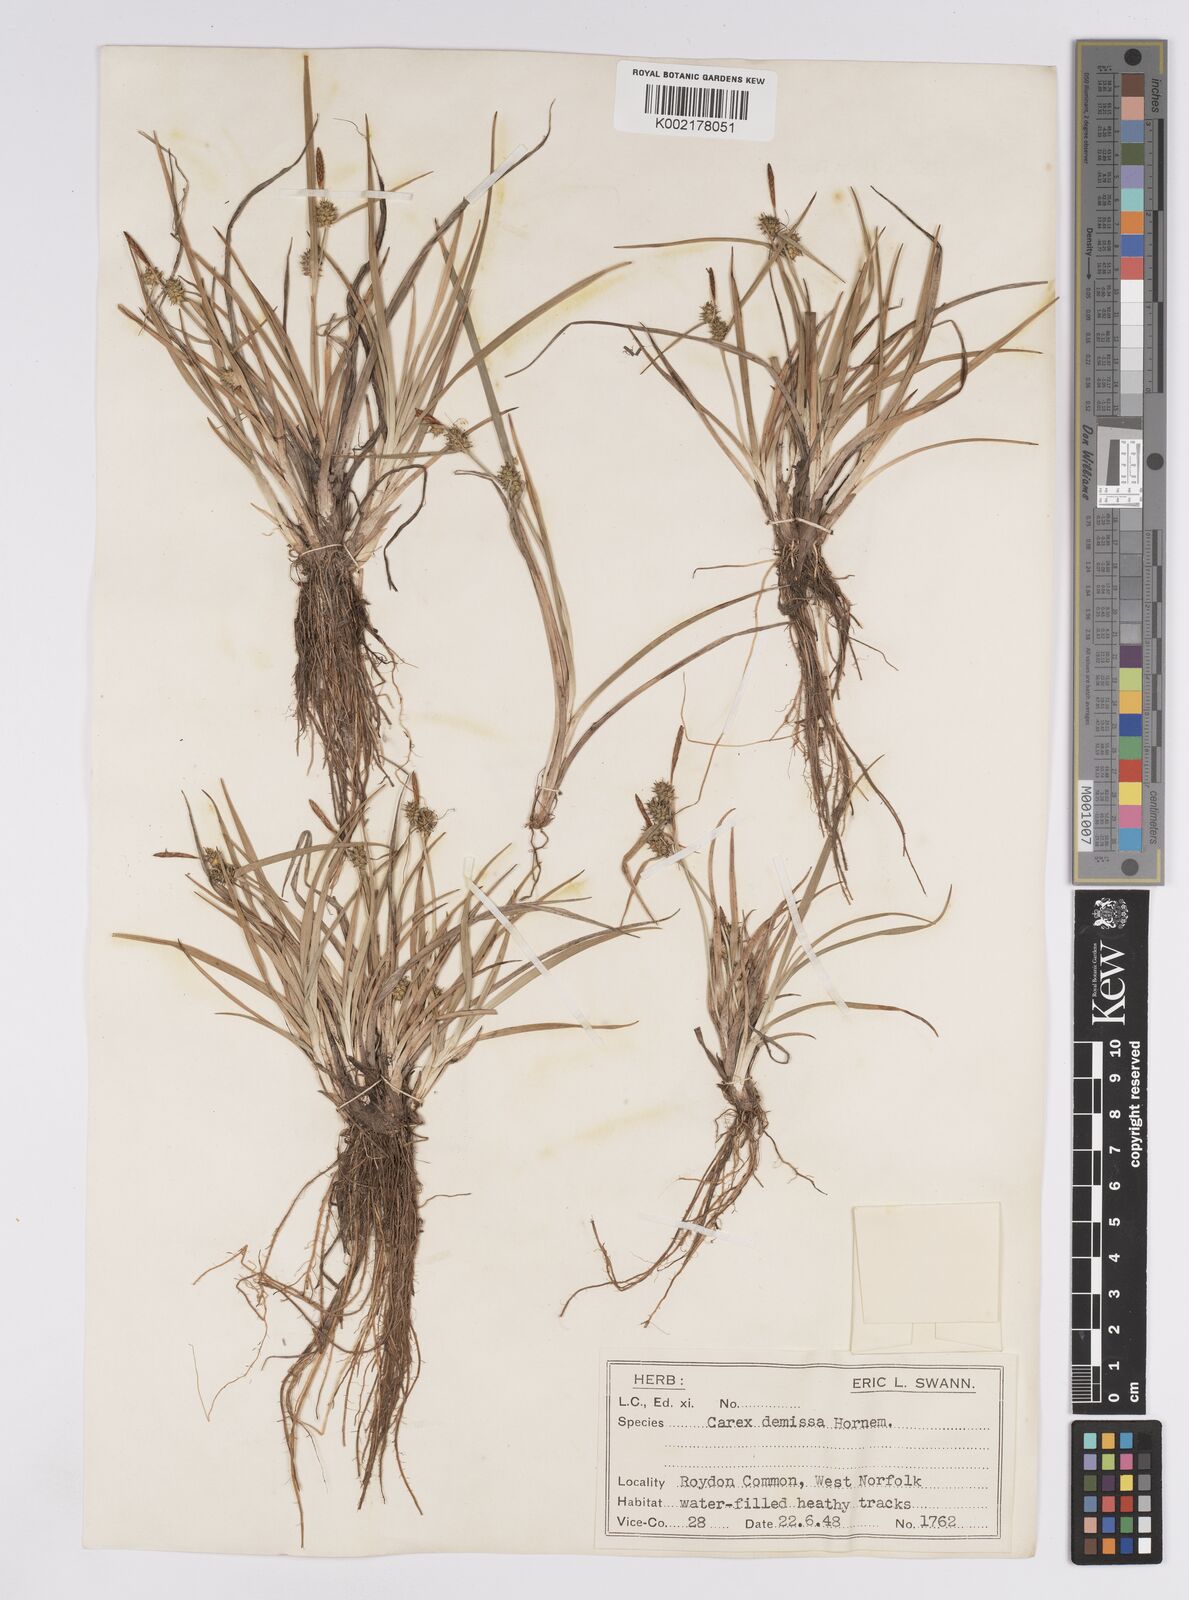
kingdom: Plantae
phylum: Tracheophyta
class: Liliopsida
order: Poales
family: Cyperaceae
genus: Carex
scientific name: Carex demissa
